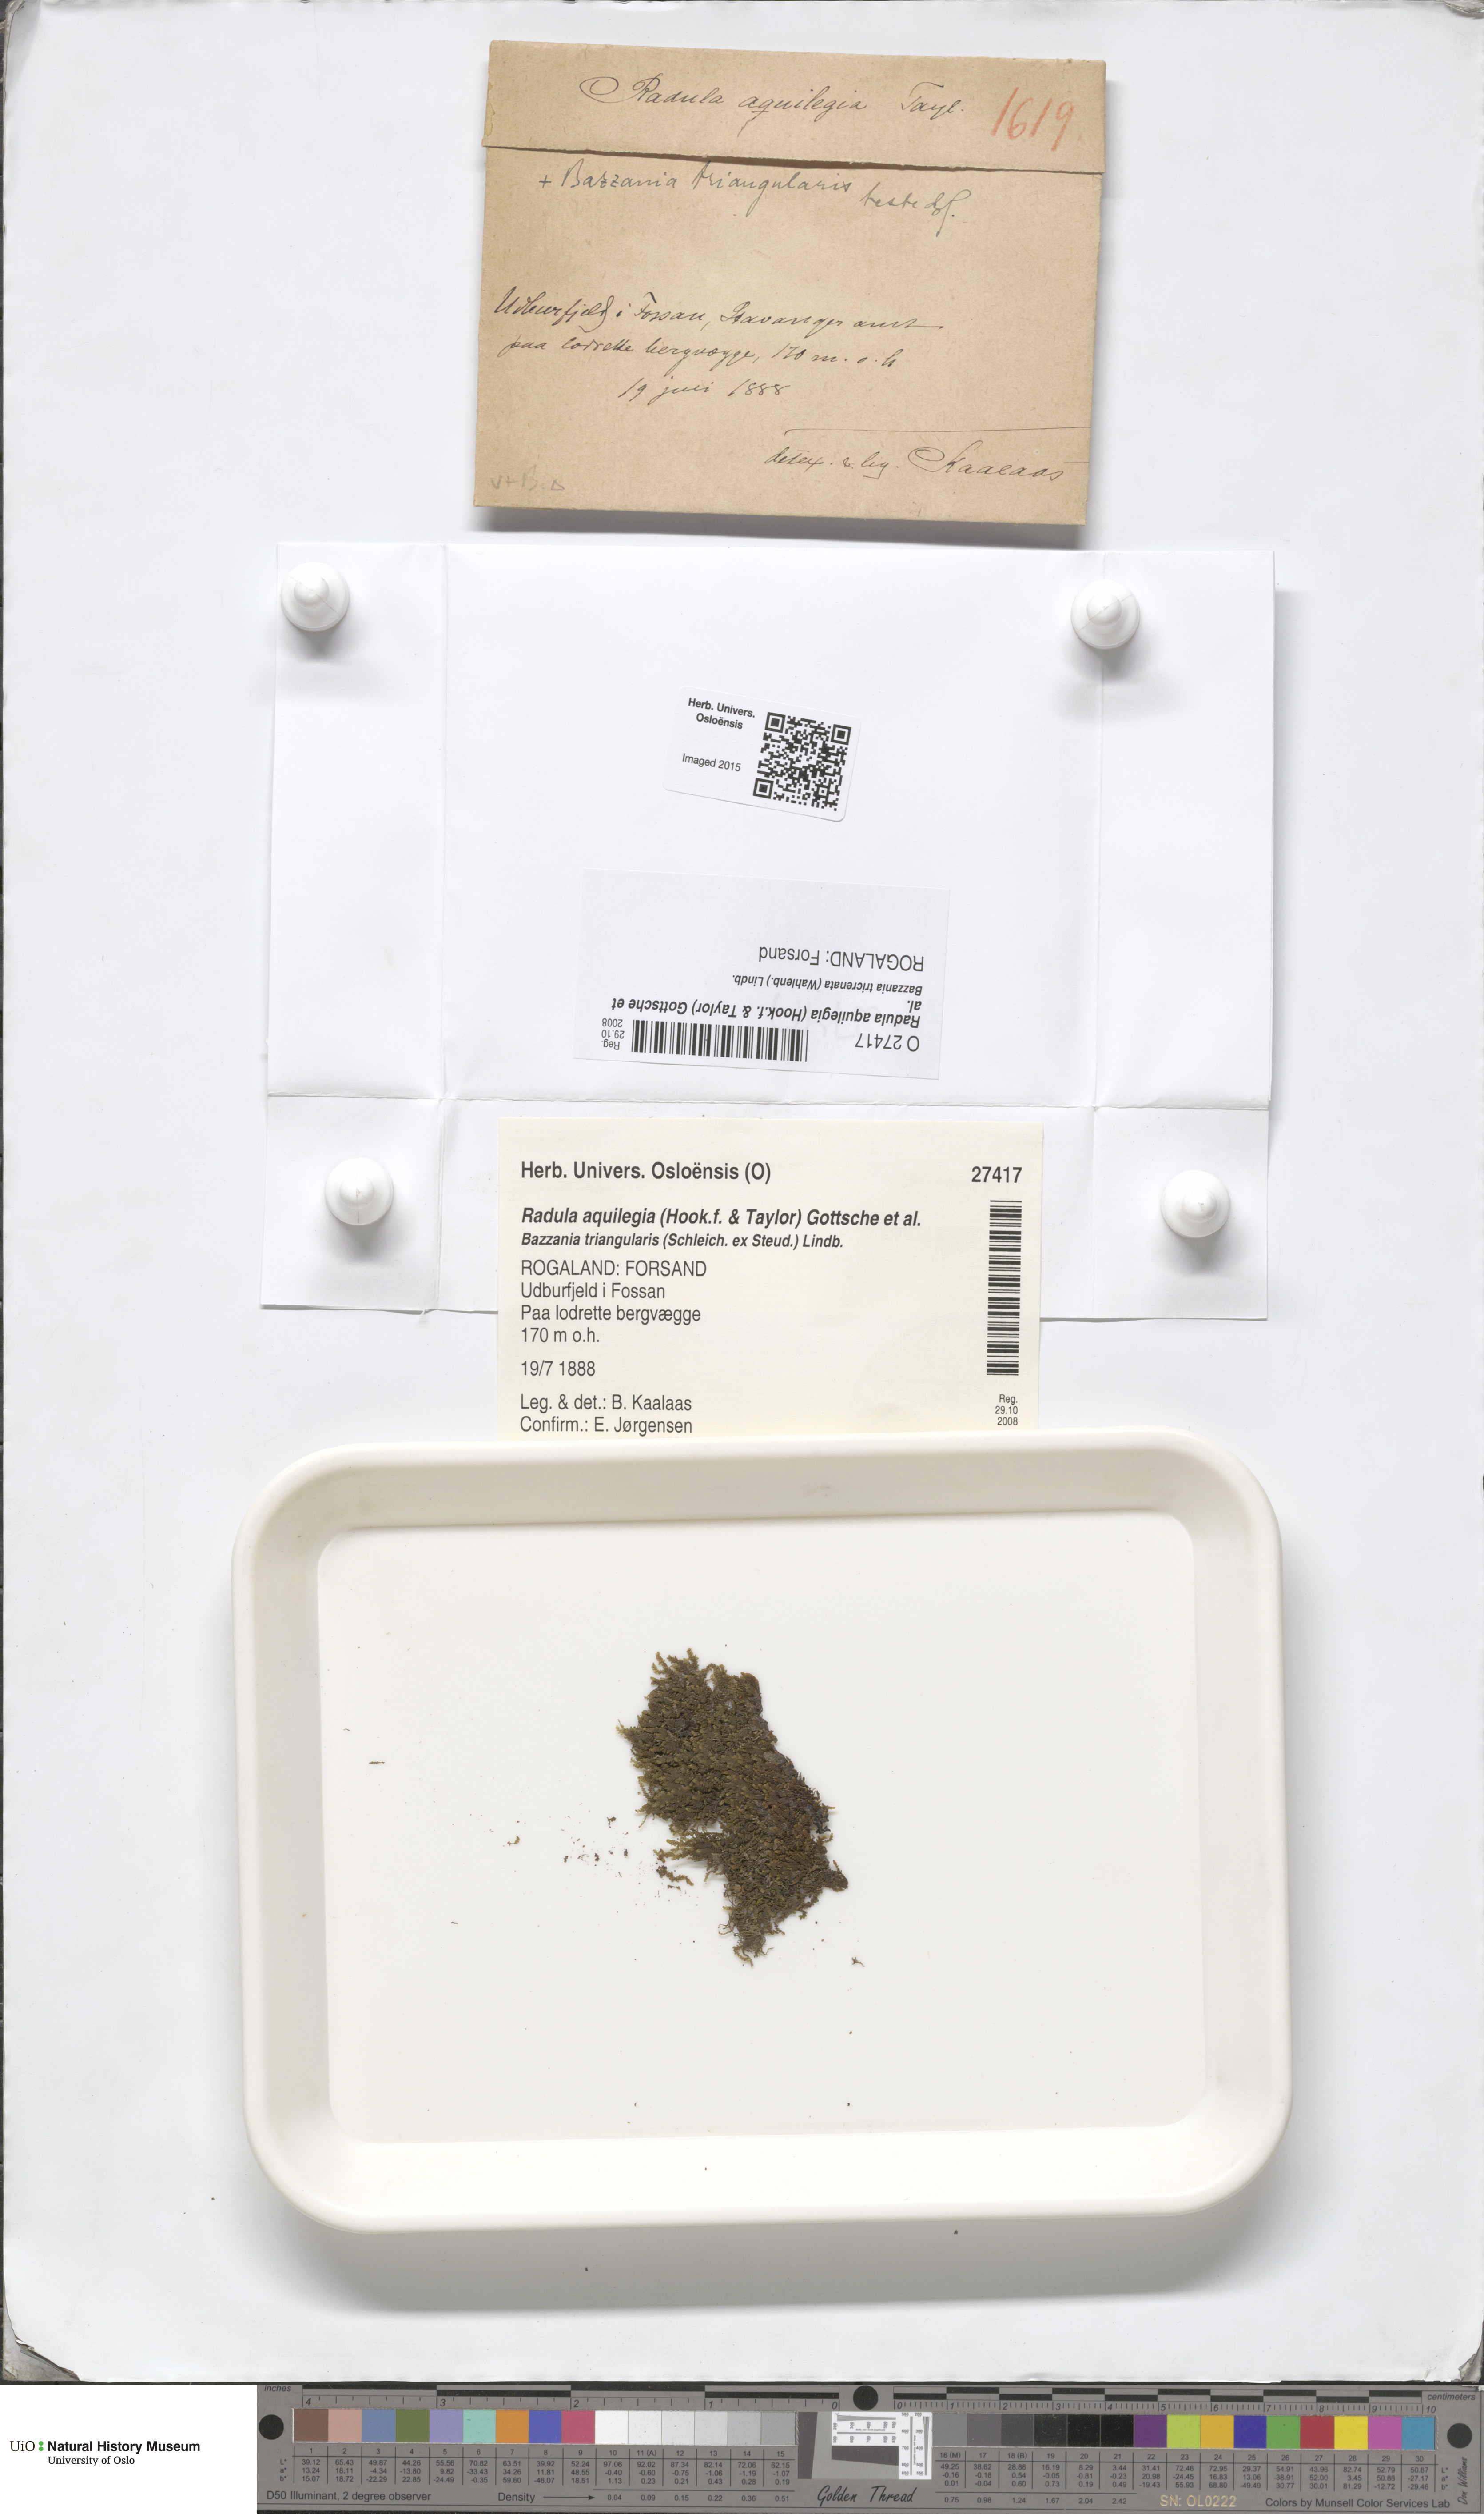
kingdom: Plantae
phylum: Marchantiophyta
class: Jungermanniopsida
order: Porellales
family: Radulaceae
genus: Radula
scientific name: Radula aquilegia
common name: Brown scalewort
